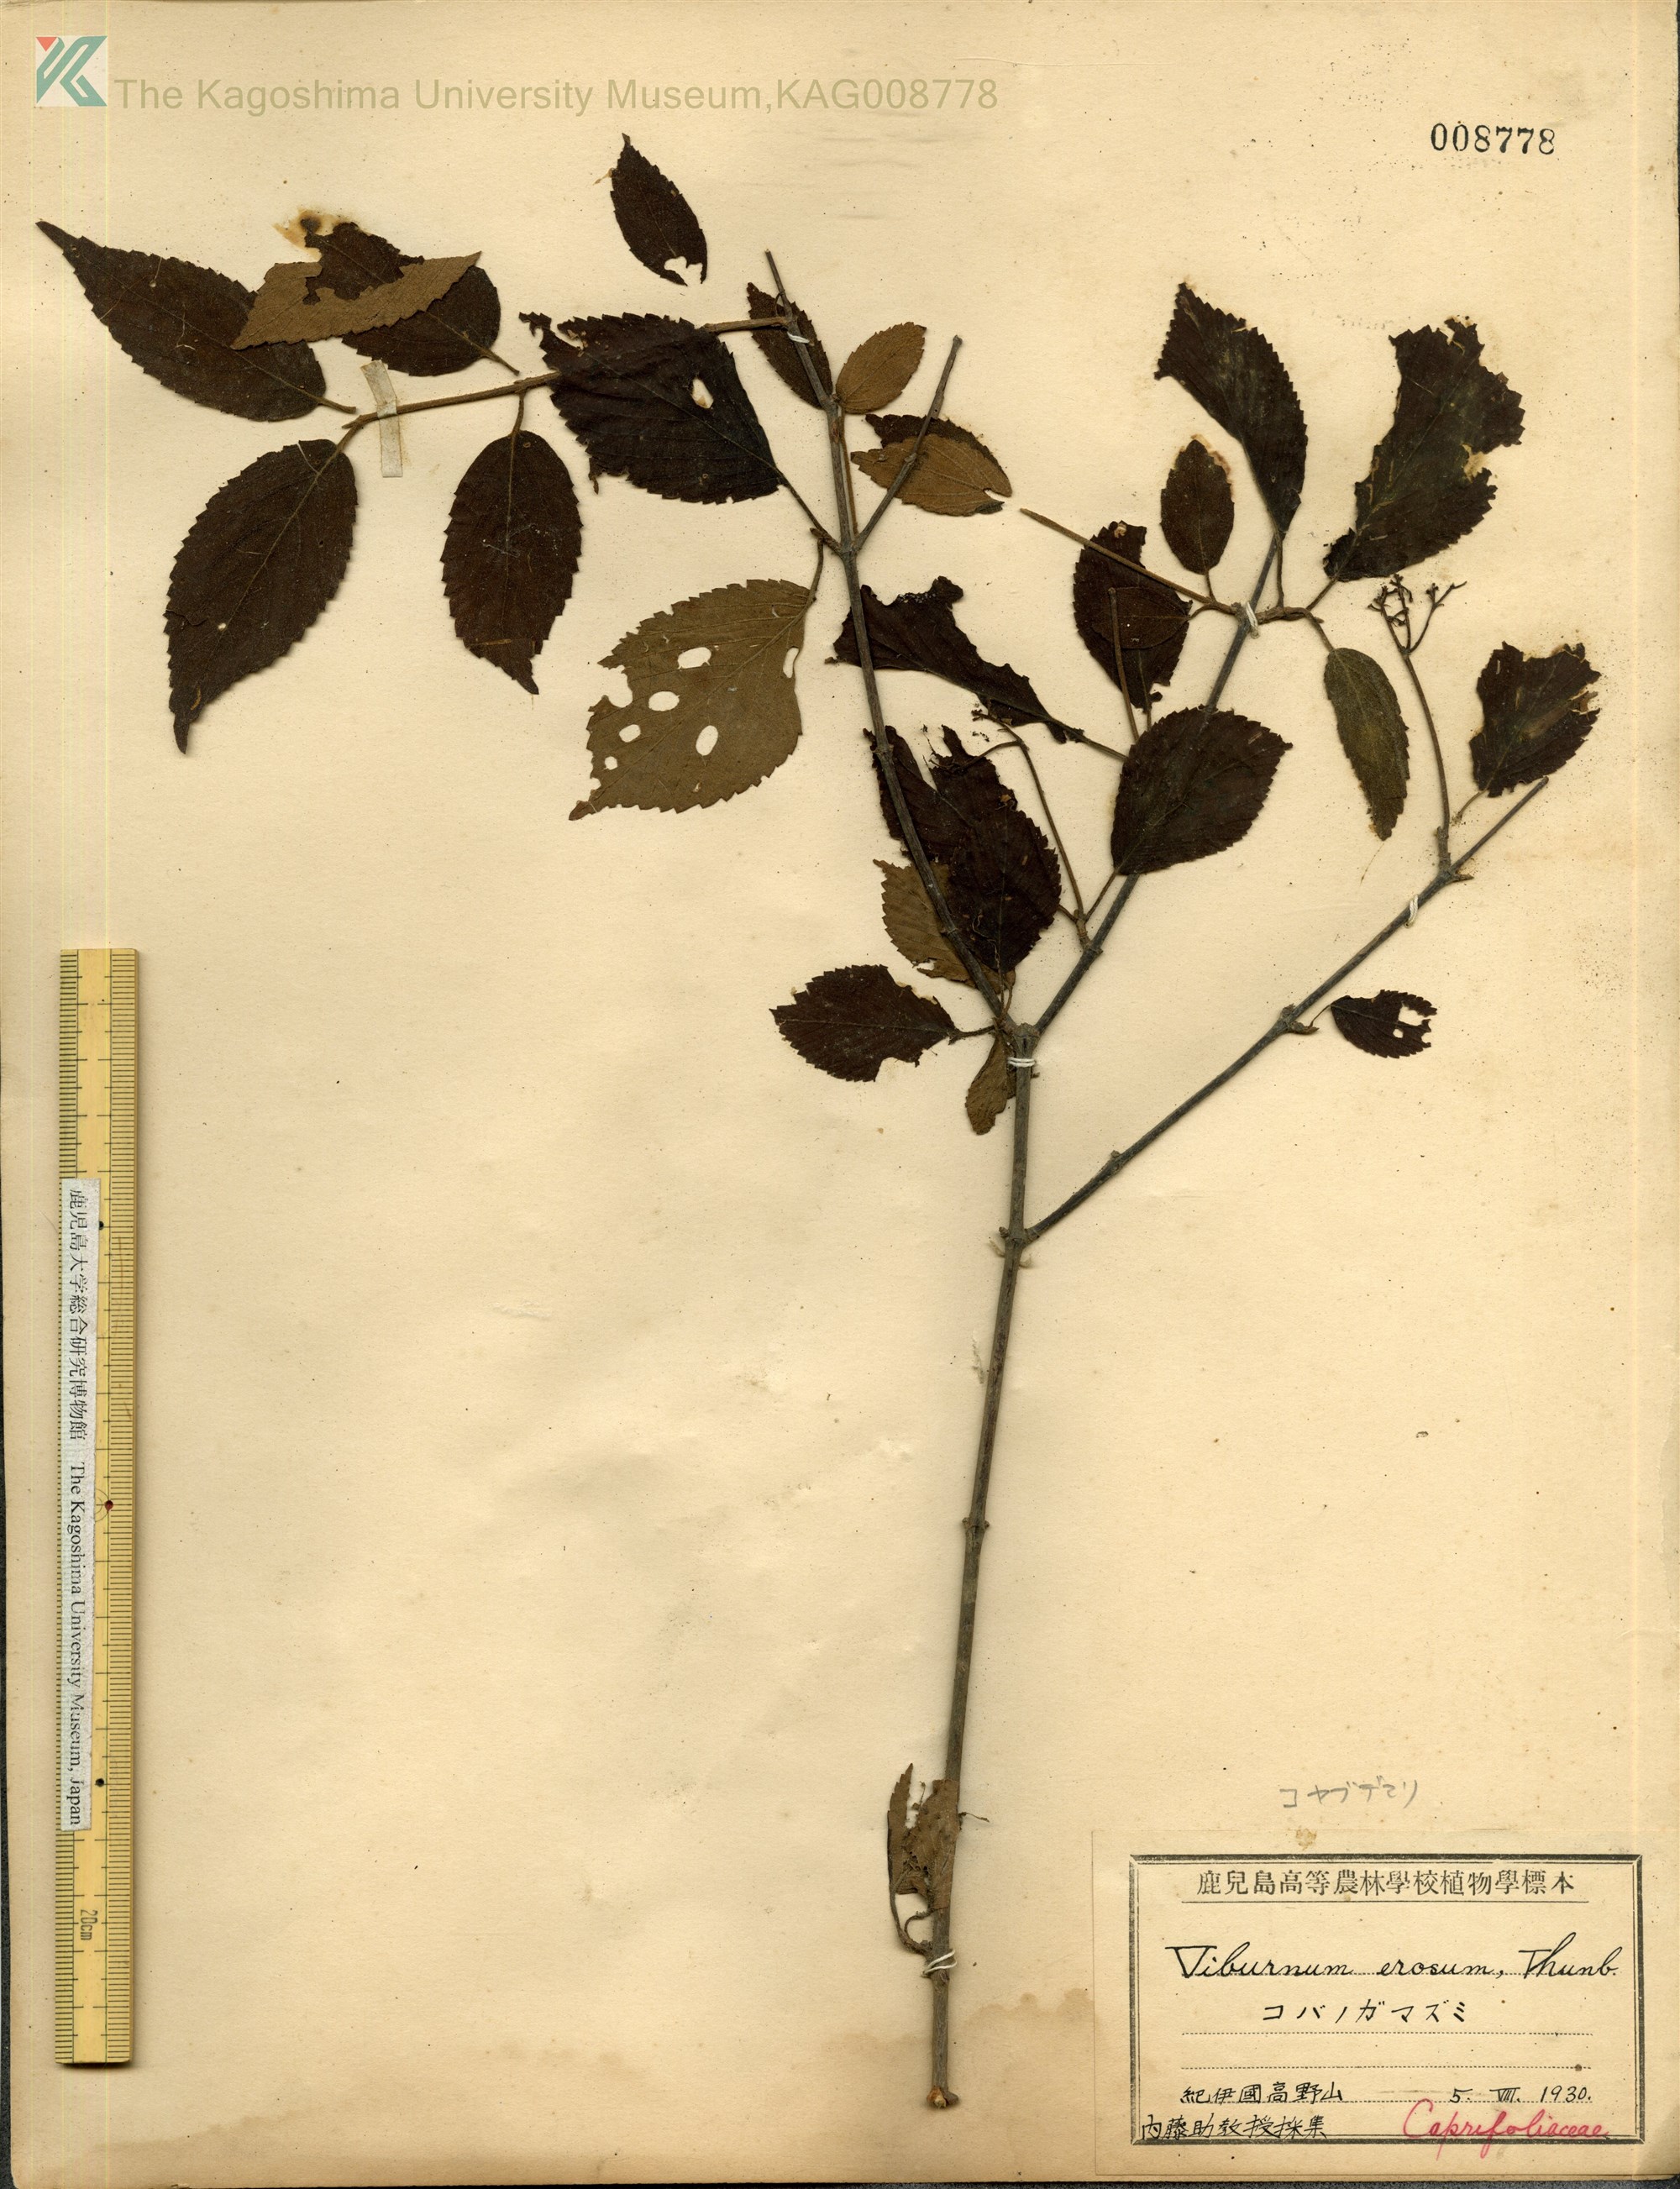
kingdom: Plantae
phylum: Tracheophyta
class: Magnoliopsida
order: Dipsacales
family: Viburnaceae
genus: Viburnum
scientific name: Viburnum plicatum
